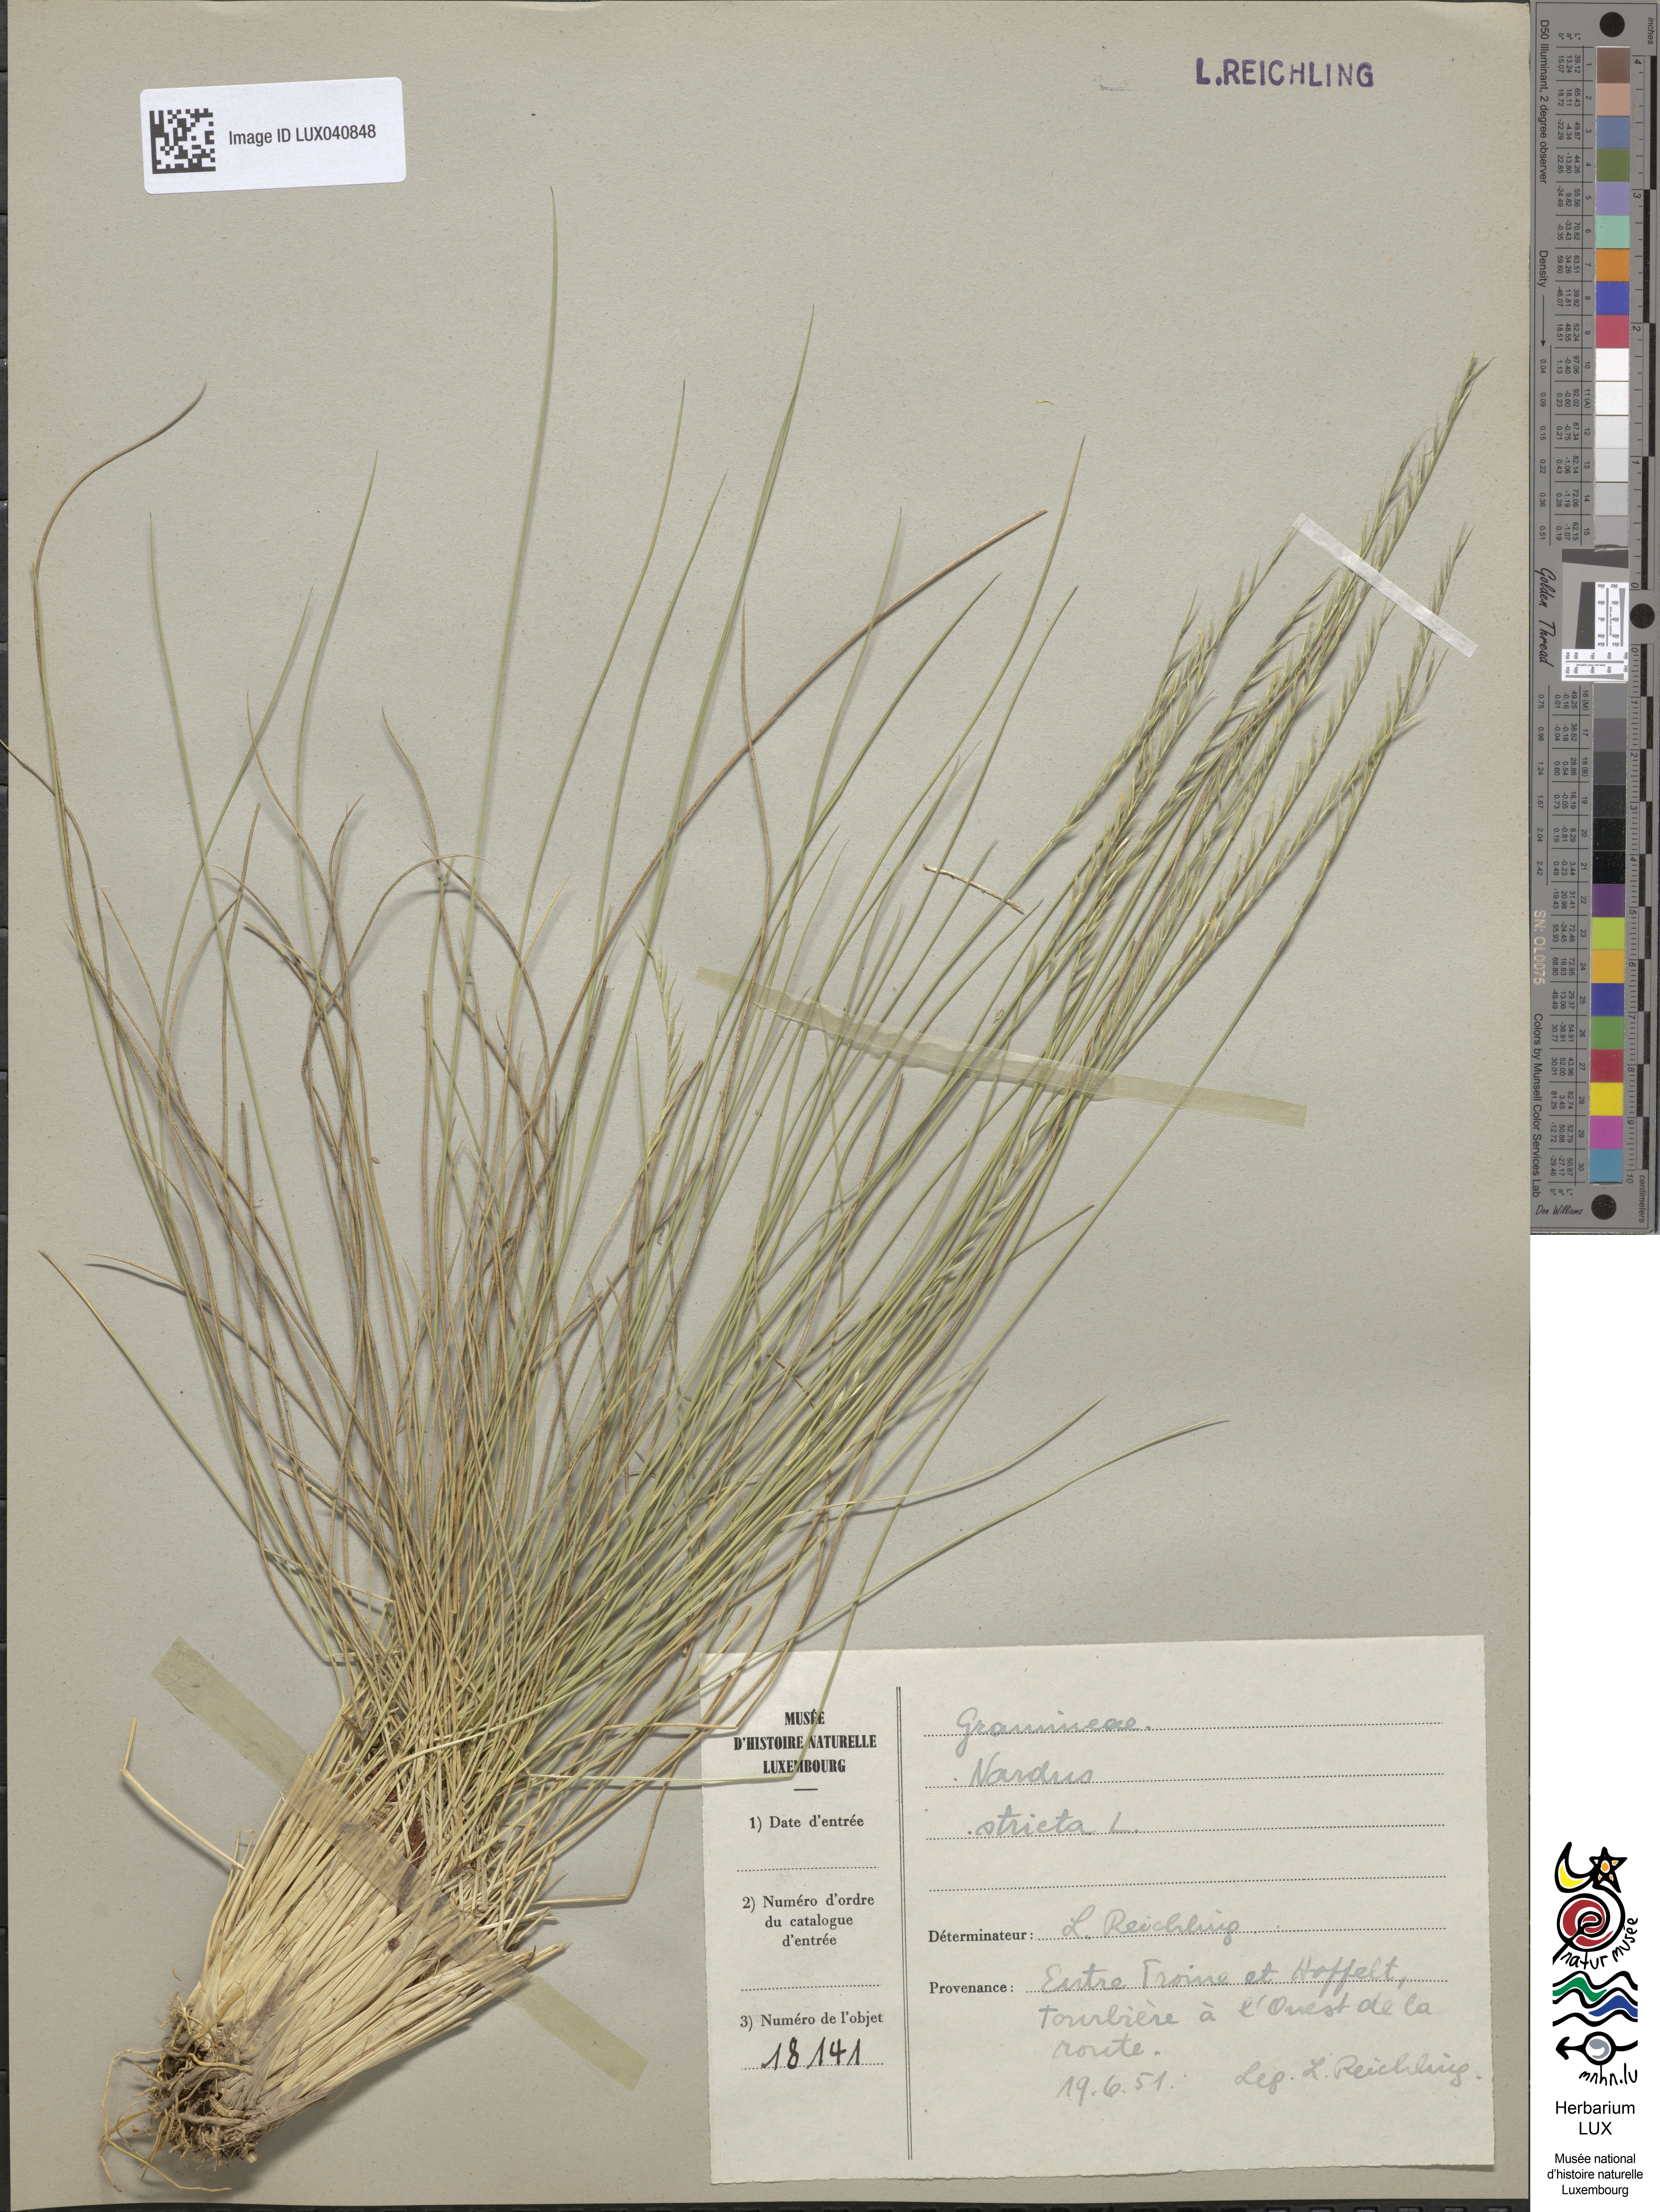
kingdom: Plantae
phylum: Tracheophyta
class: Liliopsida
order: Poales
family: Poaceae
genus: Nardus
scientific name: Nardus stricta
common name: Mat-grass
